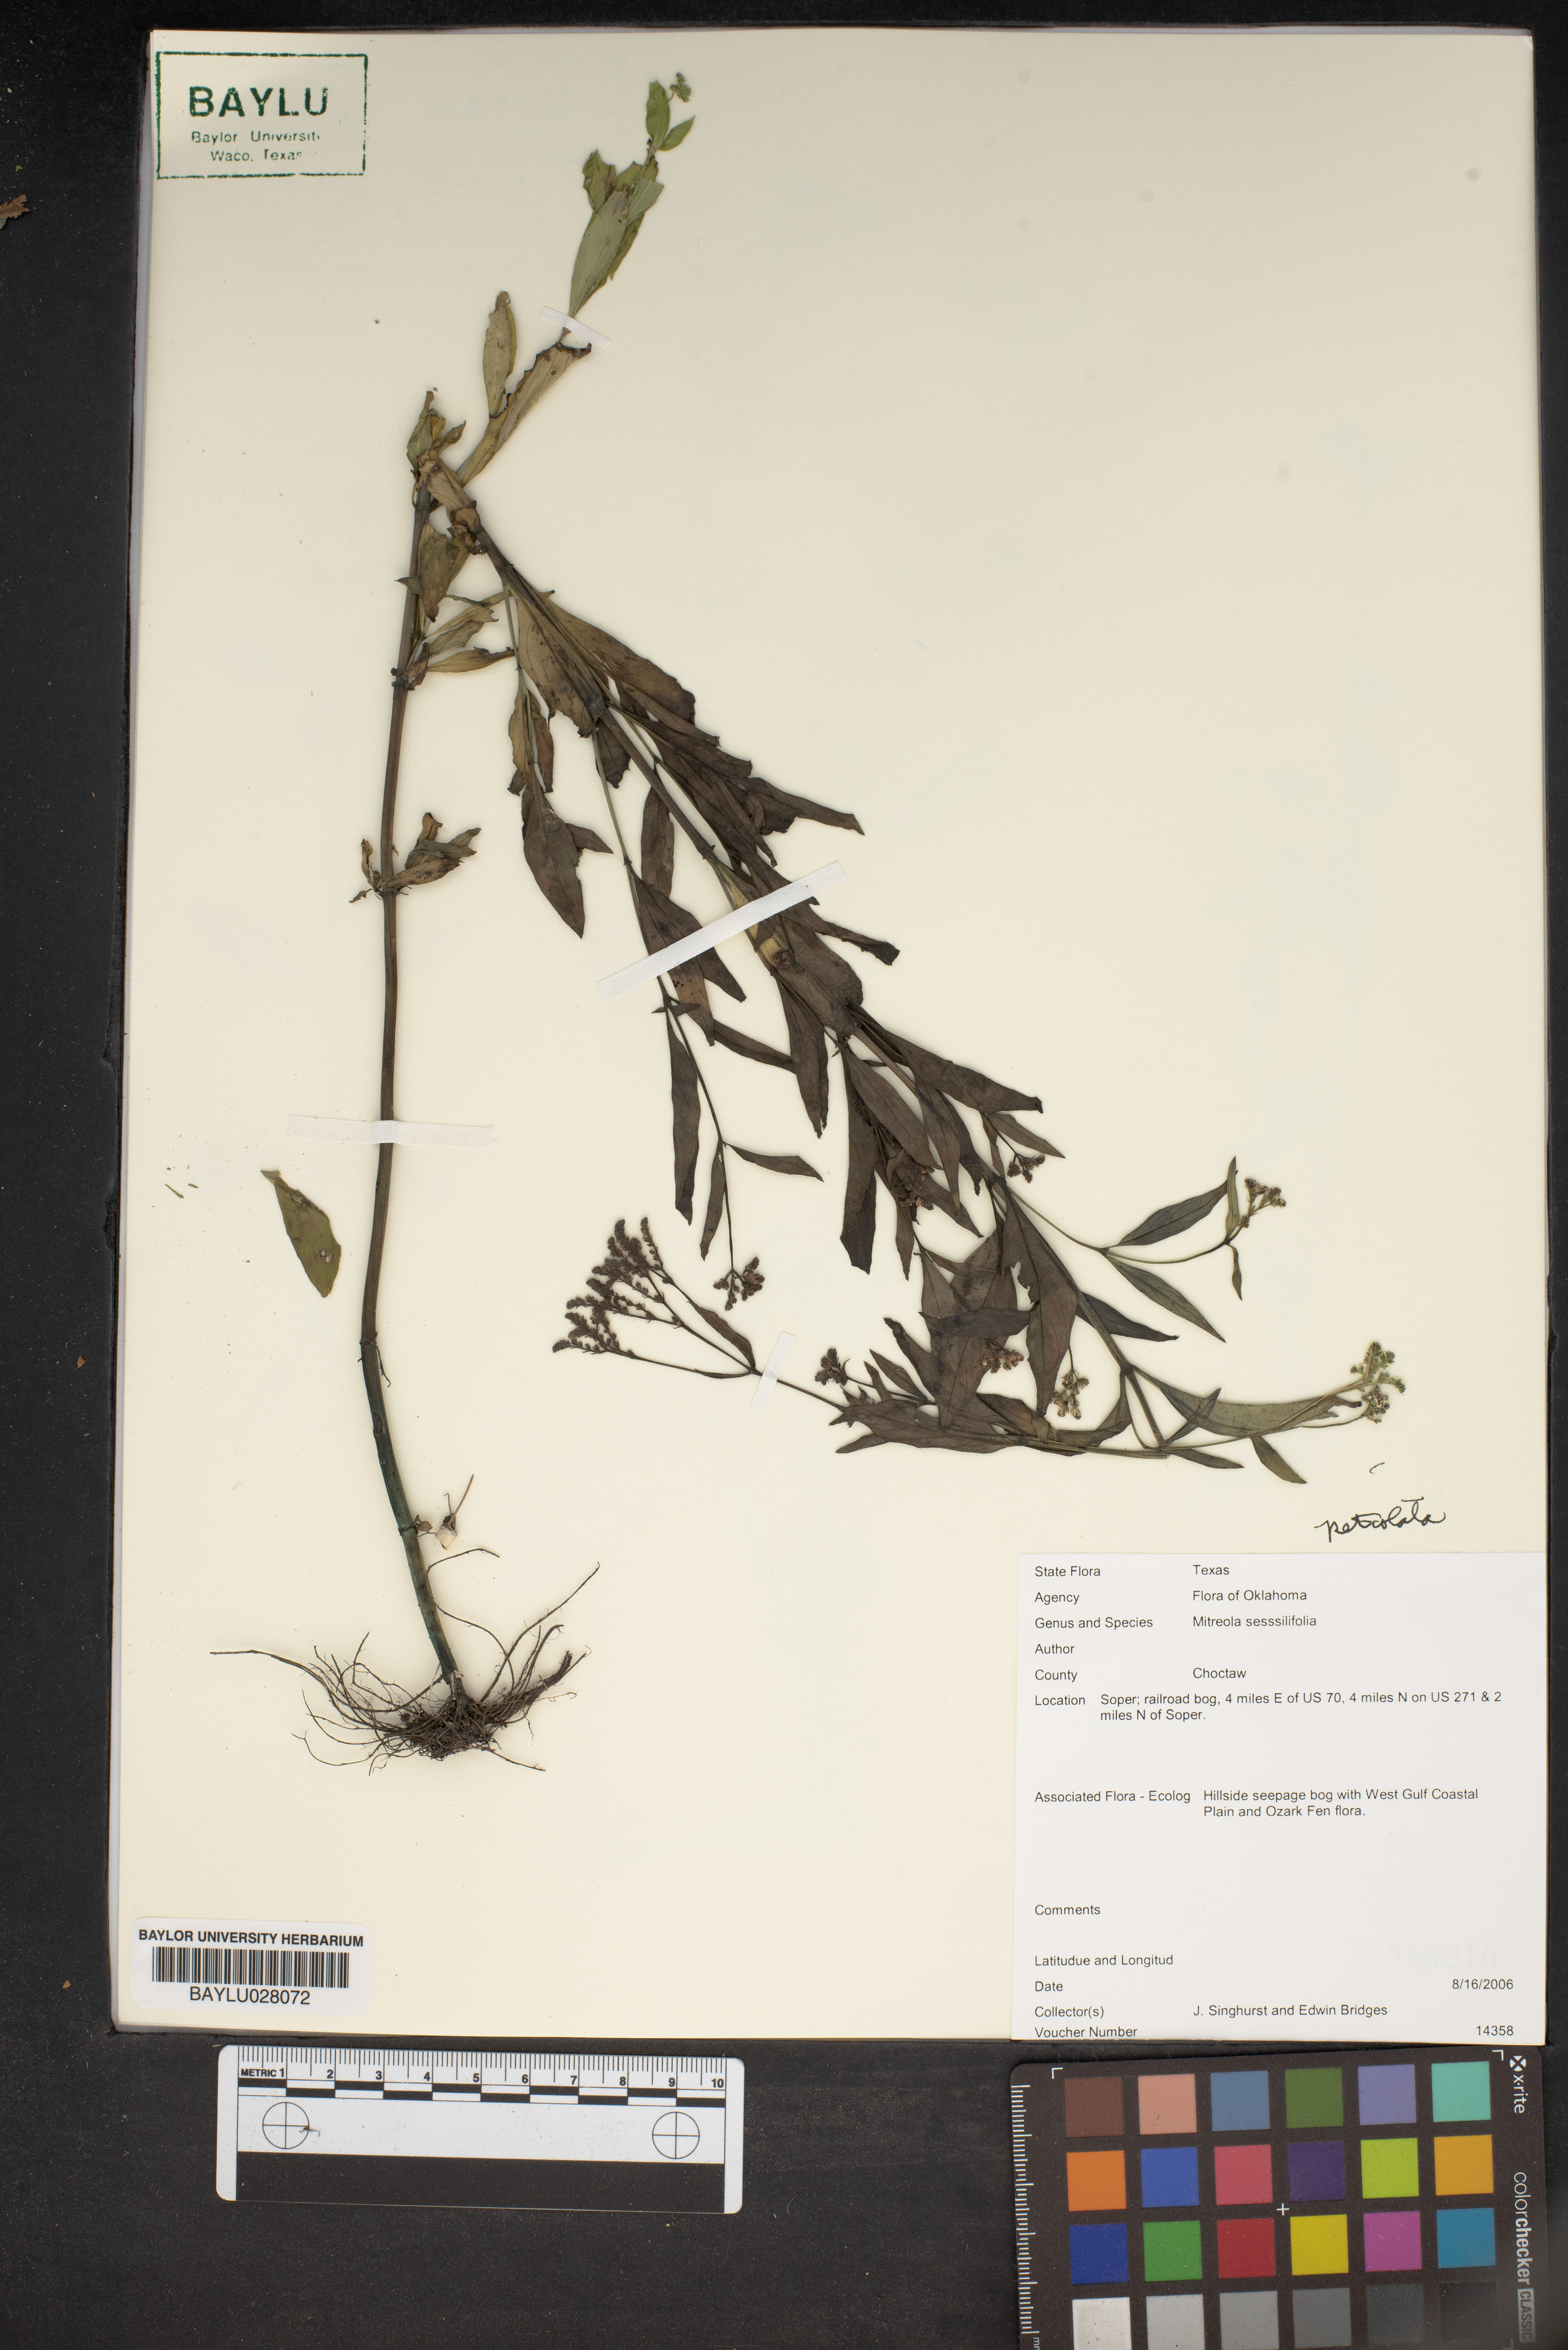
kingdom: Plantae
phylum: Tracheophyta
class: Magnoliopsida
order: Gentianales
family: Loganiaceae
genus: Mitreola
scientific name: Mitreola sessilifolia
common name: Swamp hornpod
